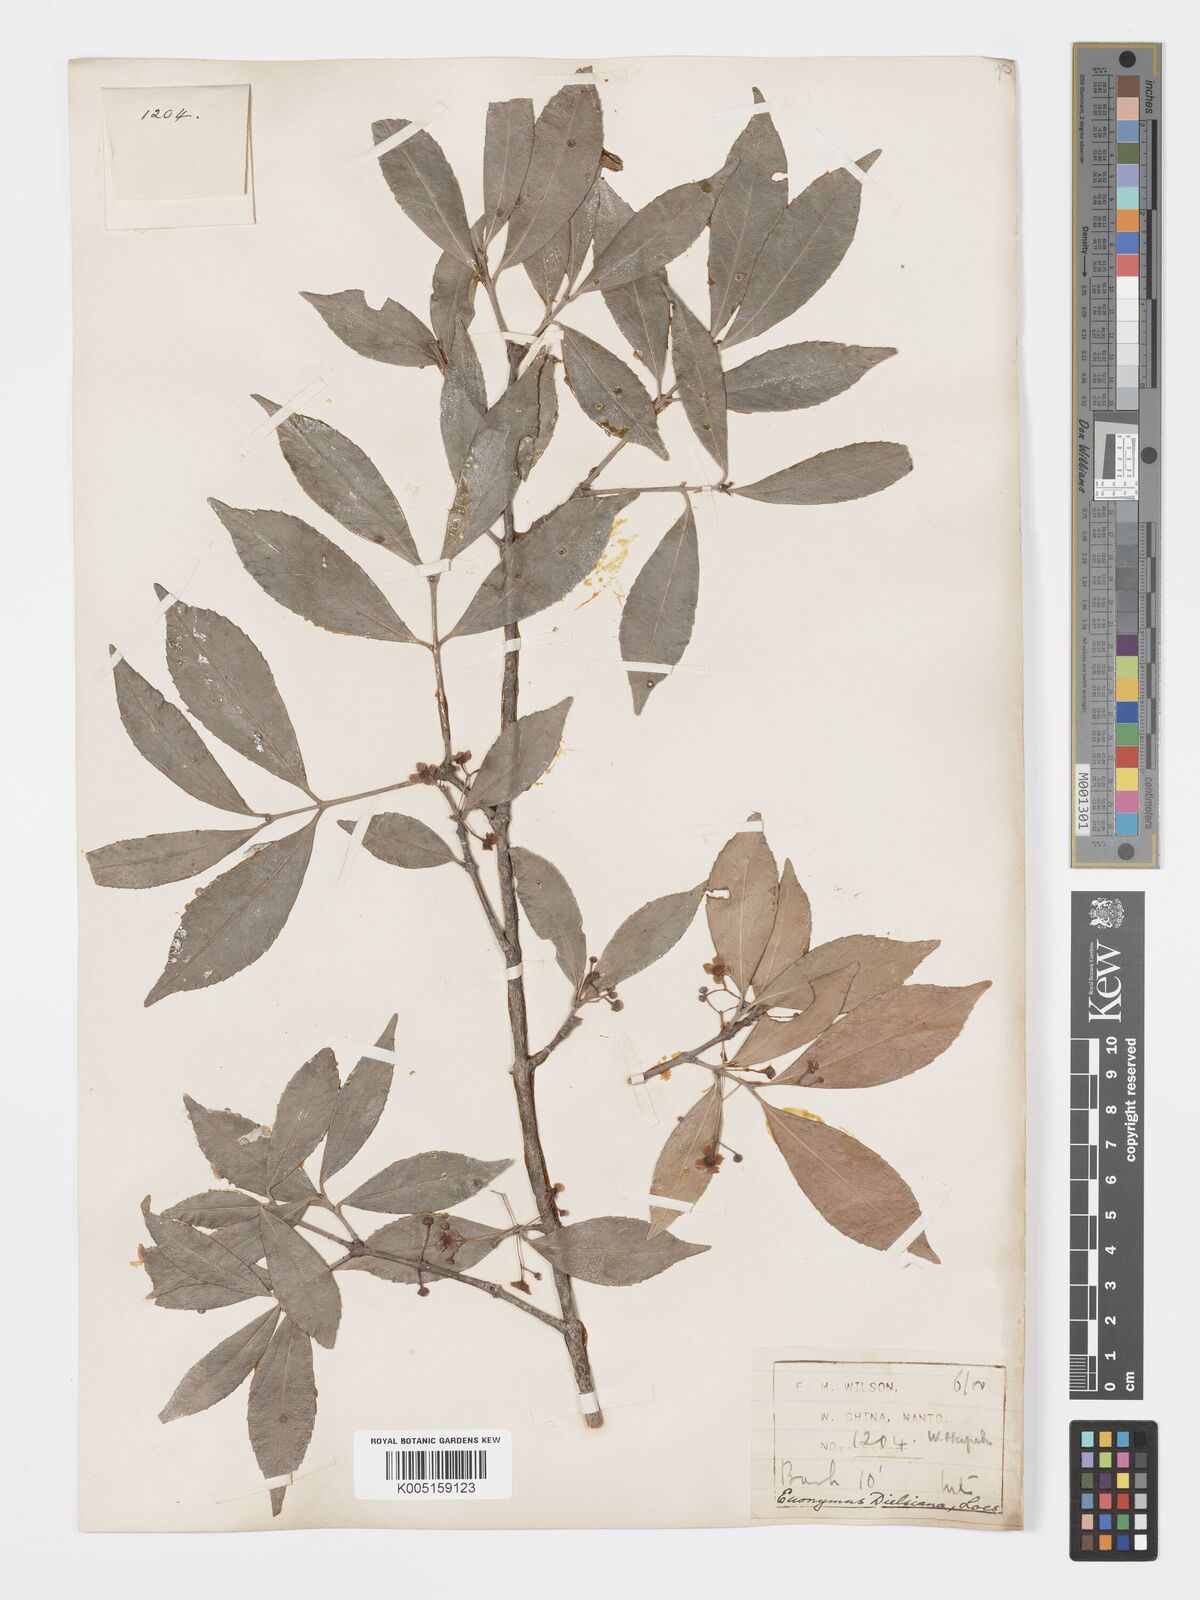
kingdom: Plantae
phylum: Tracheophyta
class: Magnoliopsida
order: Celastrales
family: Celastraceae
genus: Euonymus
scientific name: Euonymus dielsianus
